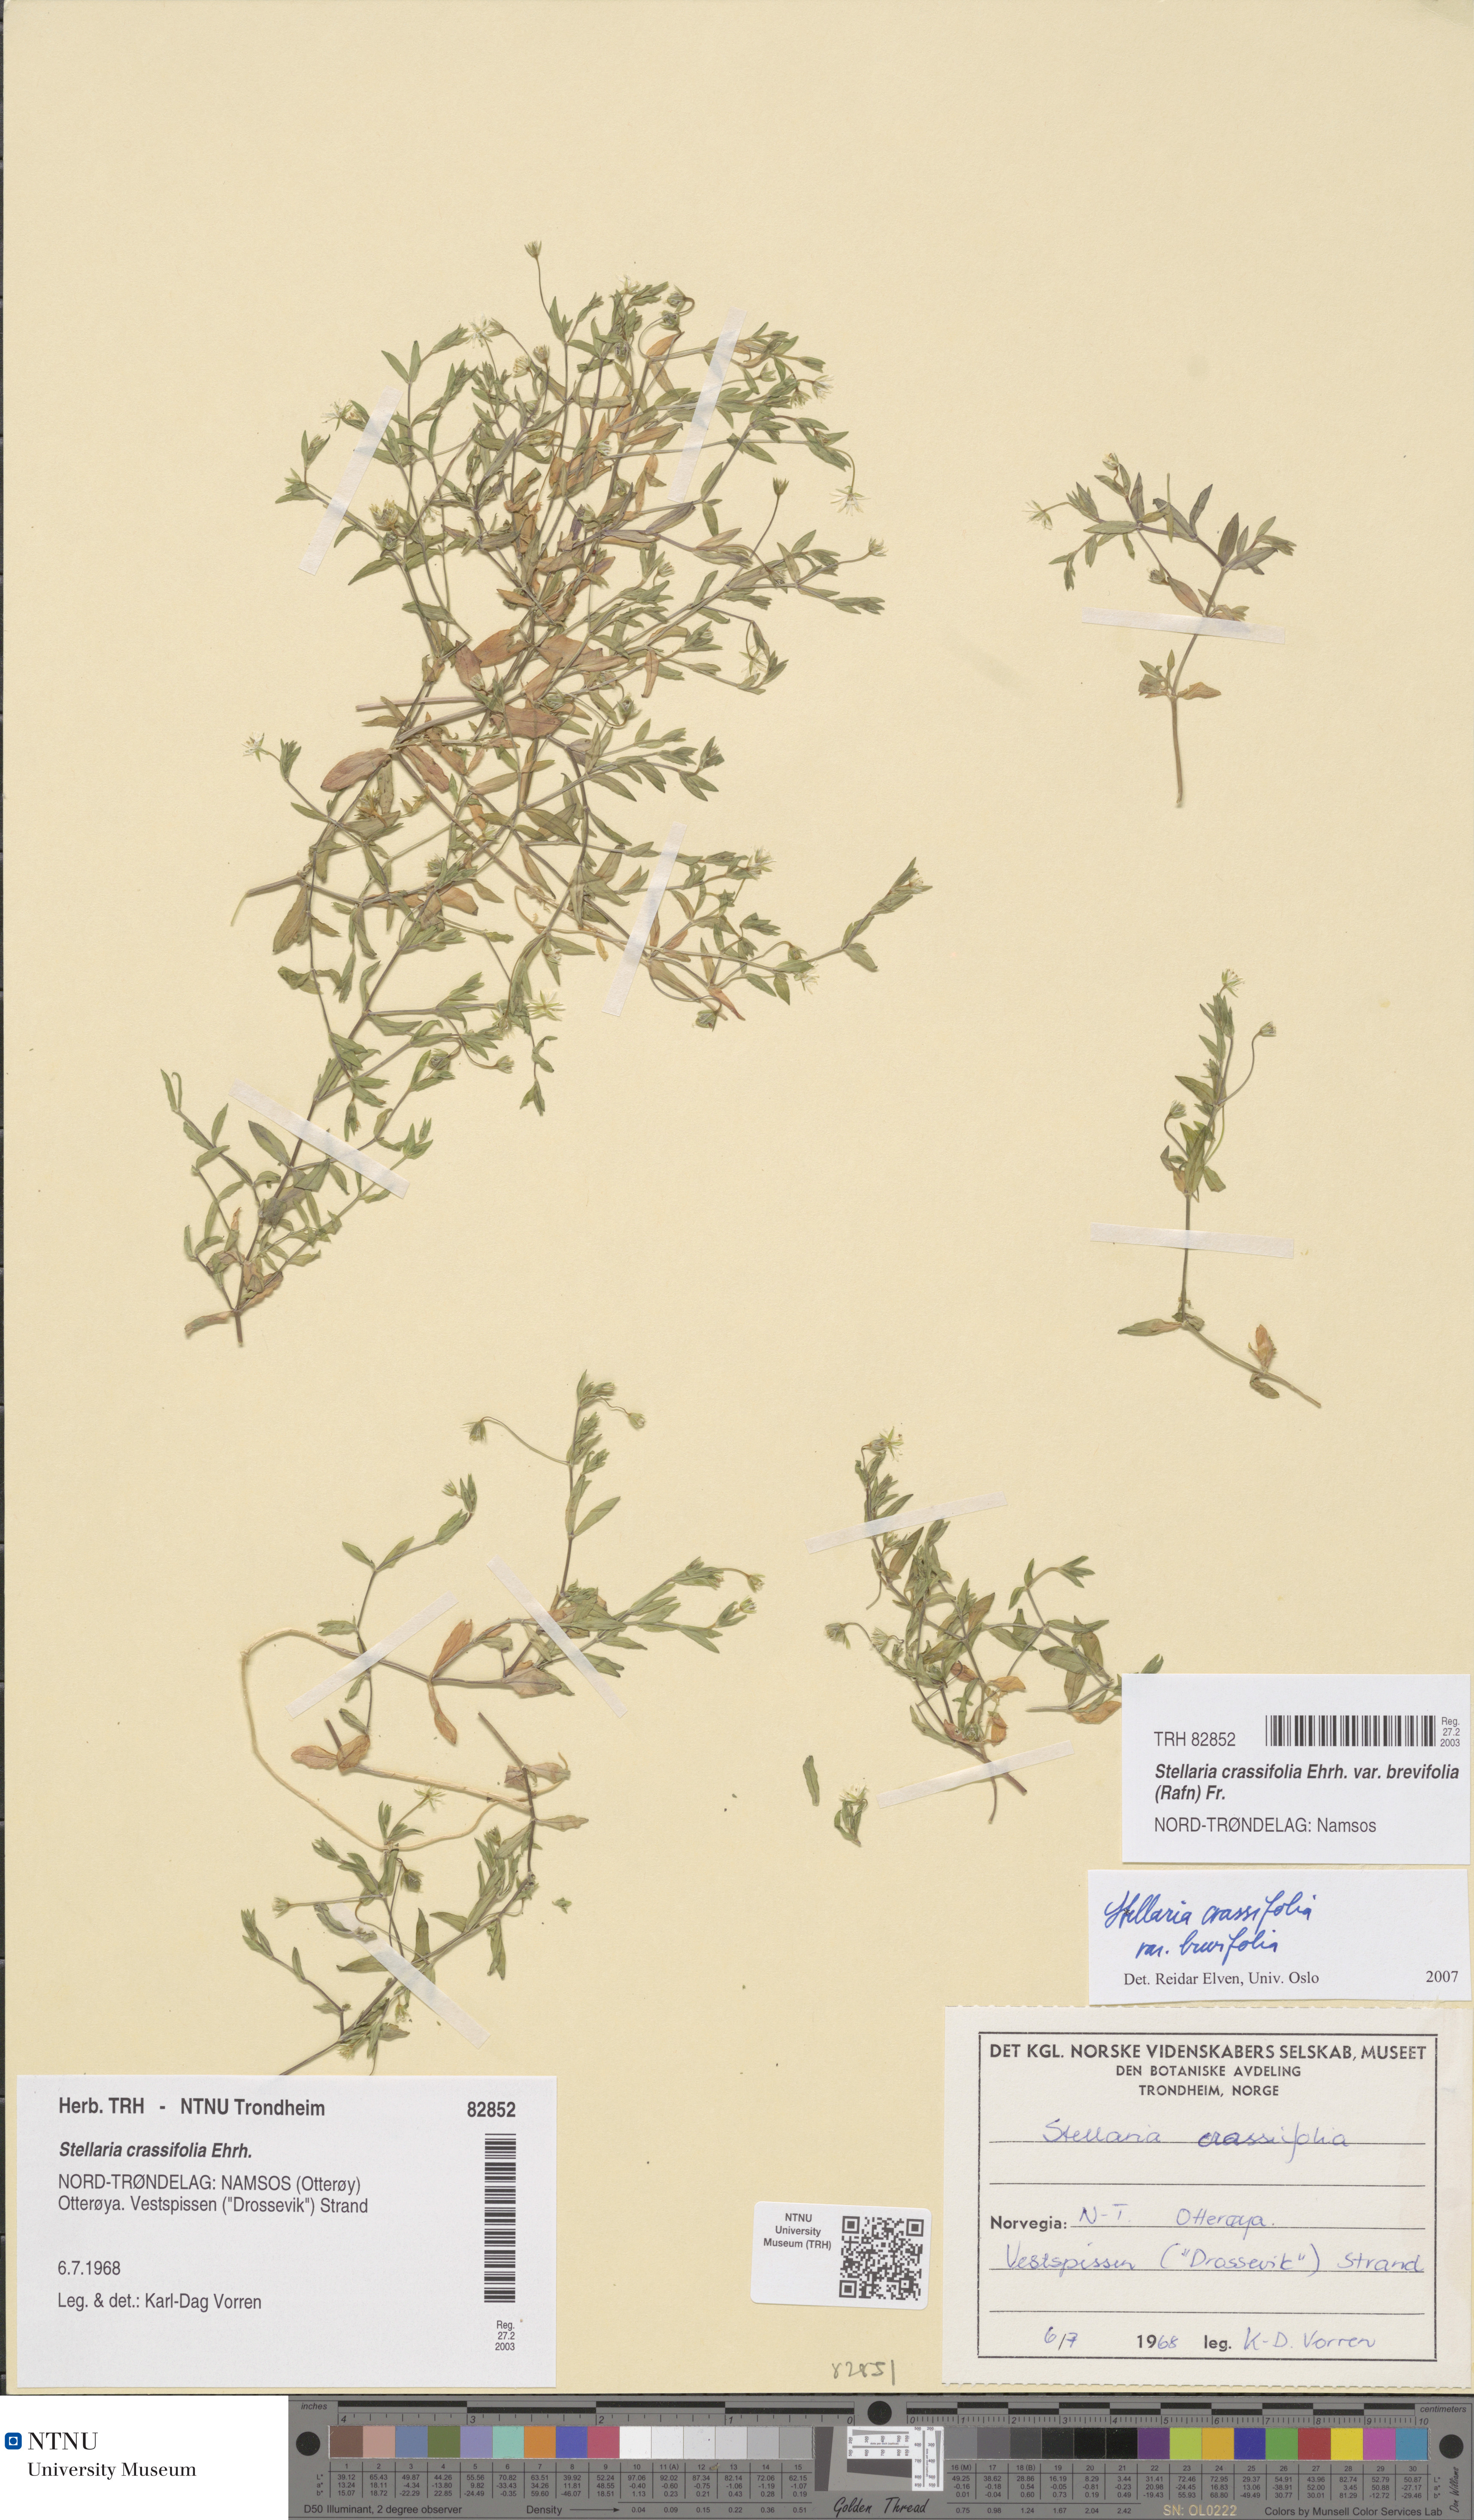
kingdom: Plantae
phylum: Tracheophyta
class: Magnoliopsida
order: Caryophyllales
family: Caryophyllaceae
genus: Stellaria
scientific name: Stellaria crassifolia
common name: Fleshy starwort
